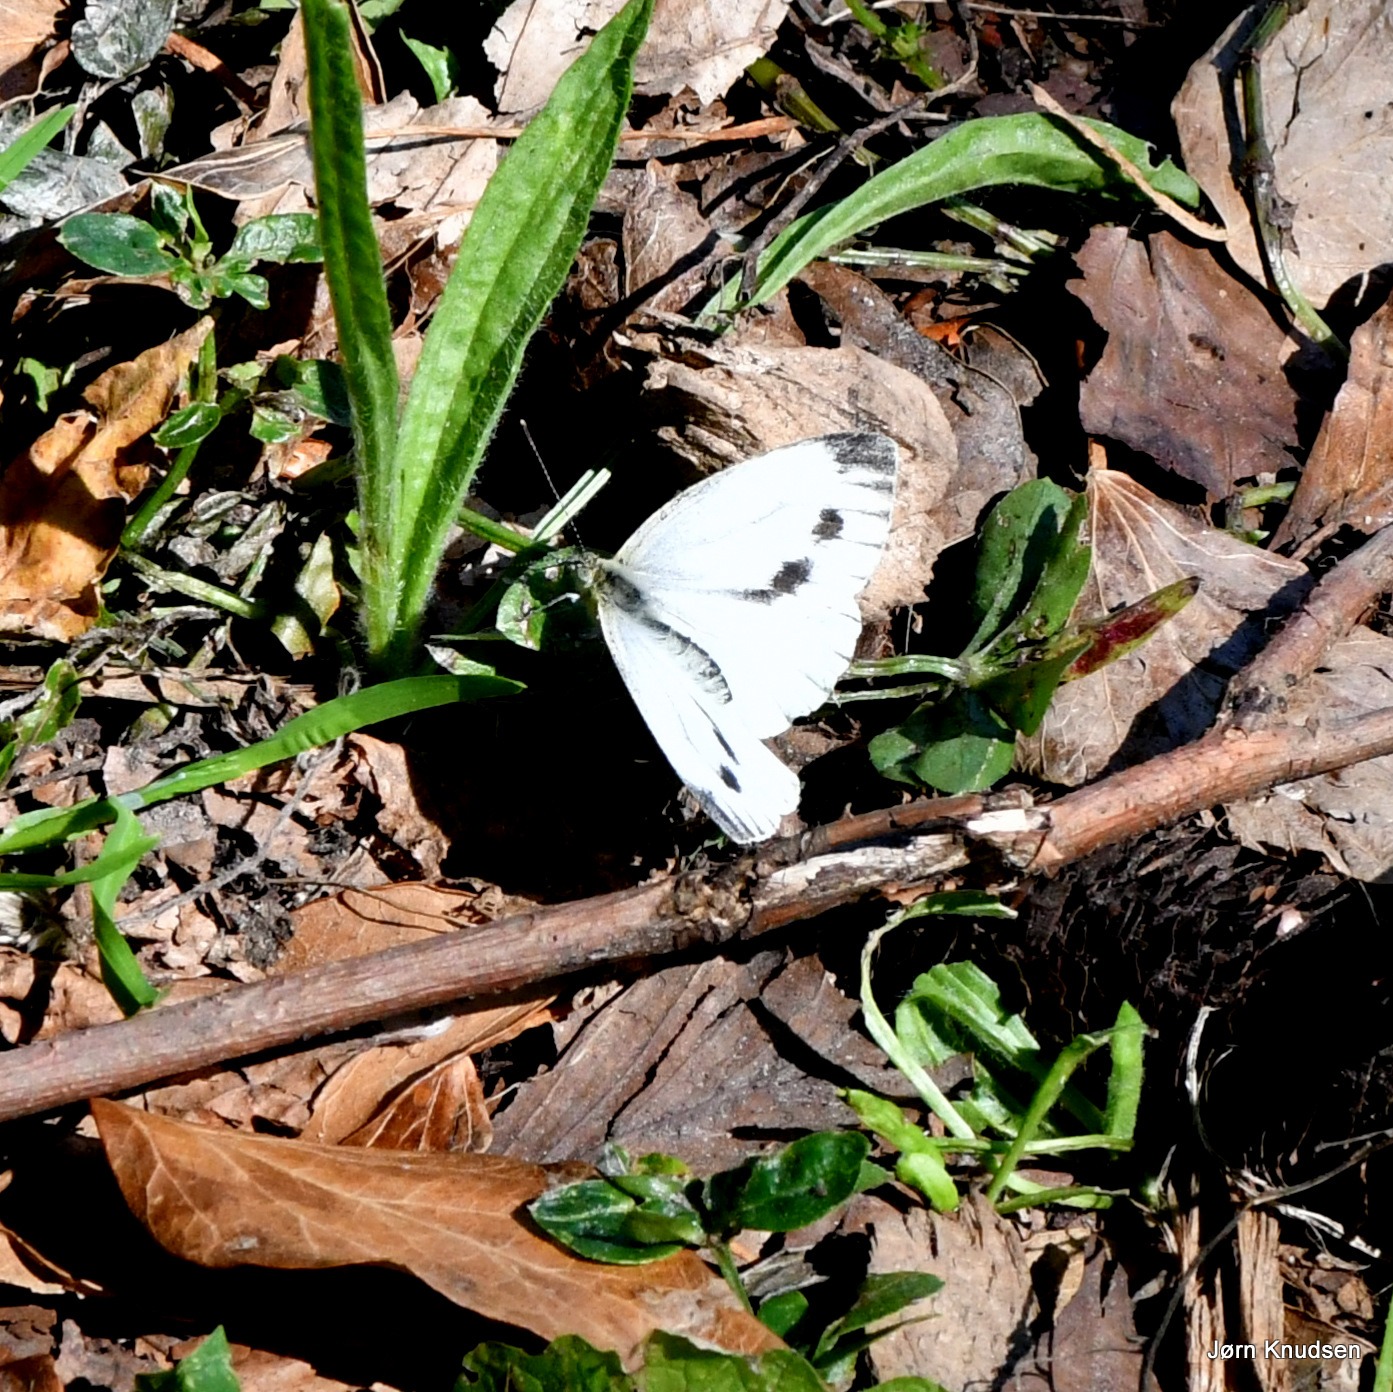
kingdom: Animalia
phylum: Arthropoda
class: Insecta
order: Lepidoptera
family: Pieridae
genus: Pieris
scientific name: Pieris napi
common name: Grønåret kålsommerfugl
